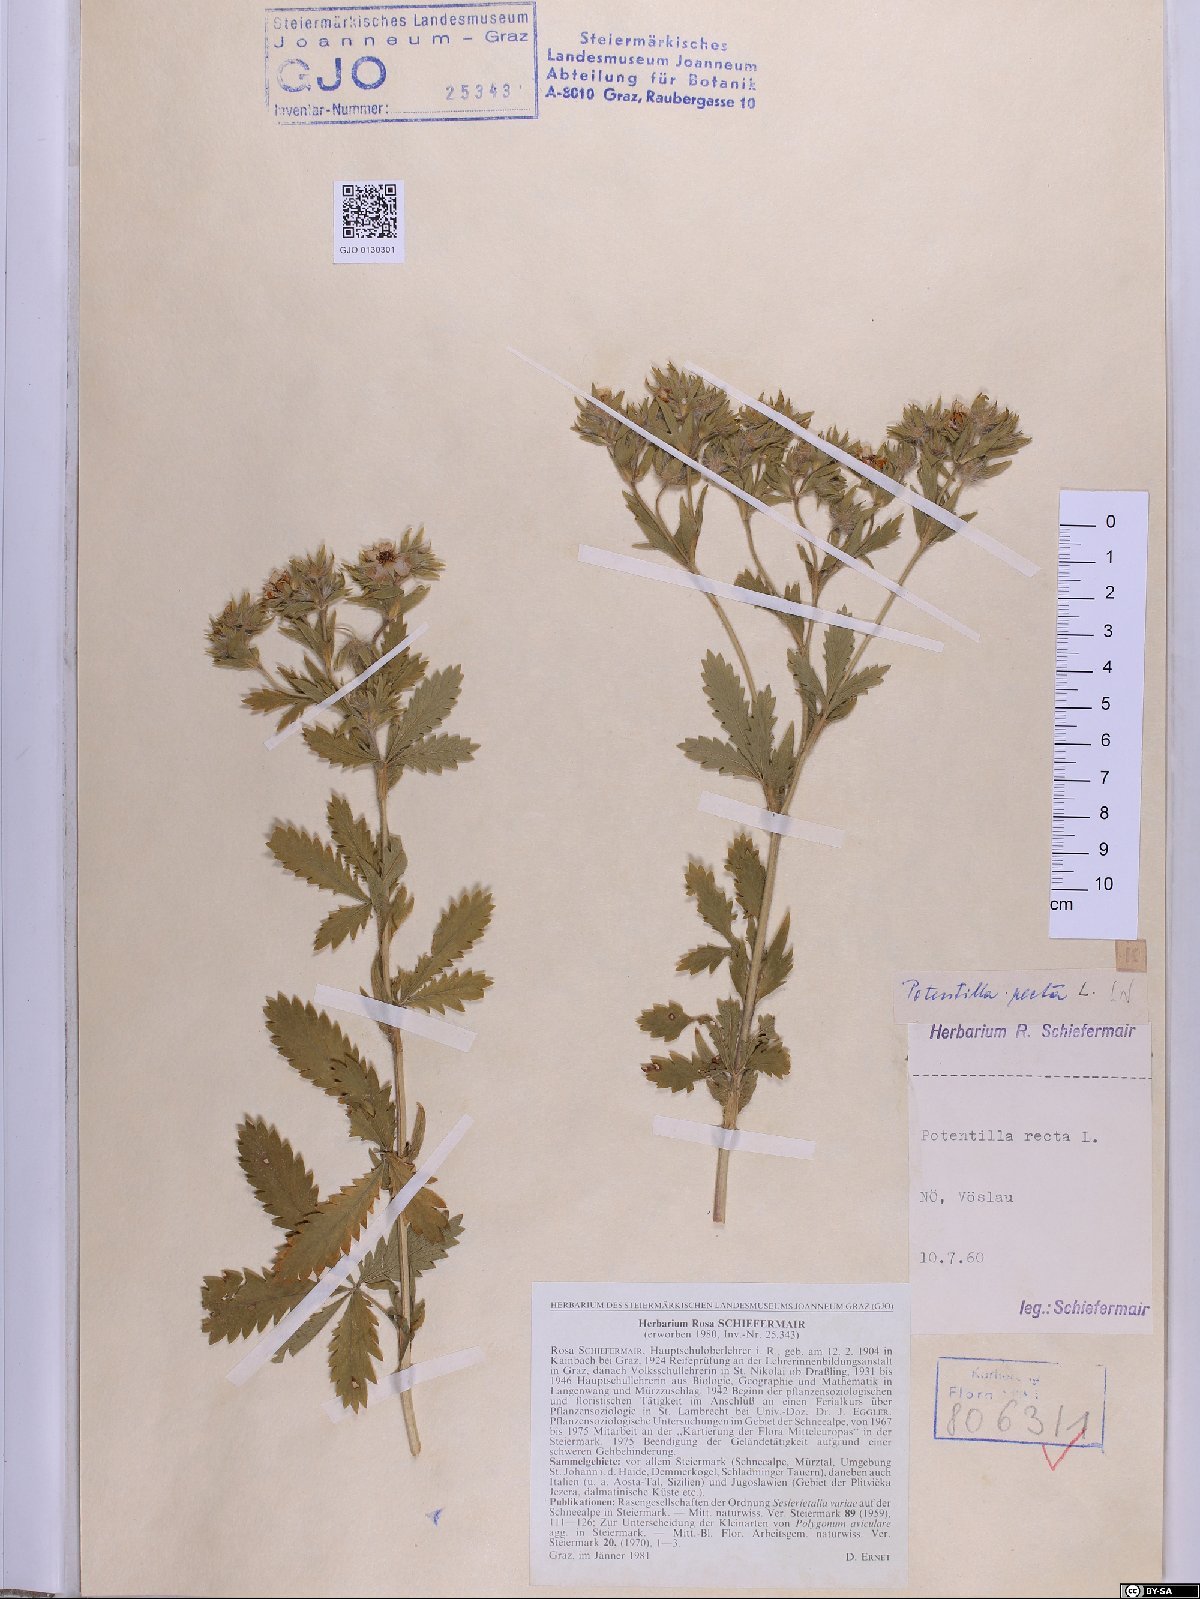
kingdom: Plantae
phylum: Tracheophyta
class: Magnoliopsida
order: Rosales
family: Rosaceae
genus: Potentilla
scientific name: Potentilla recta
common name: Sulphur cinquefoil
